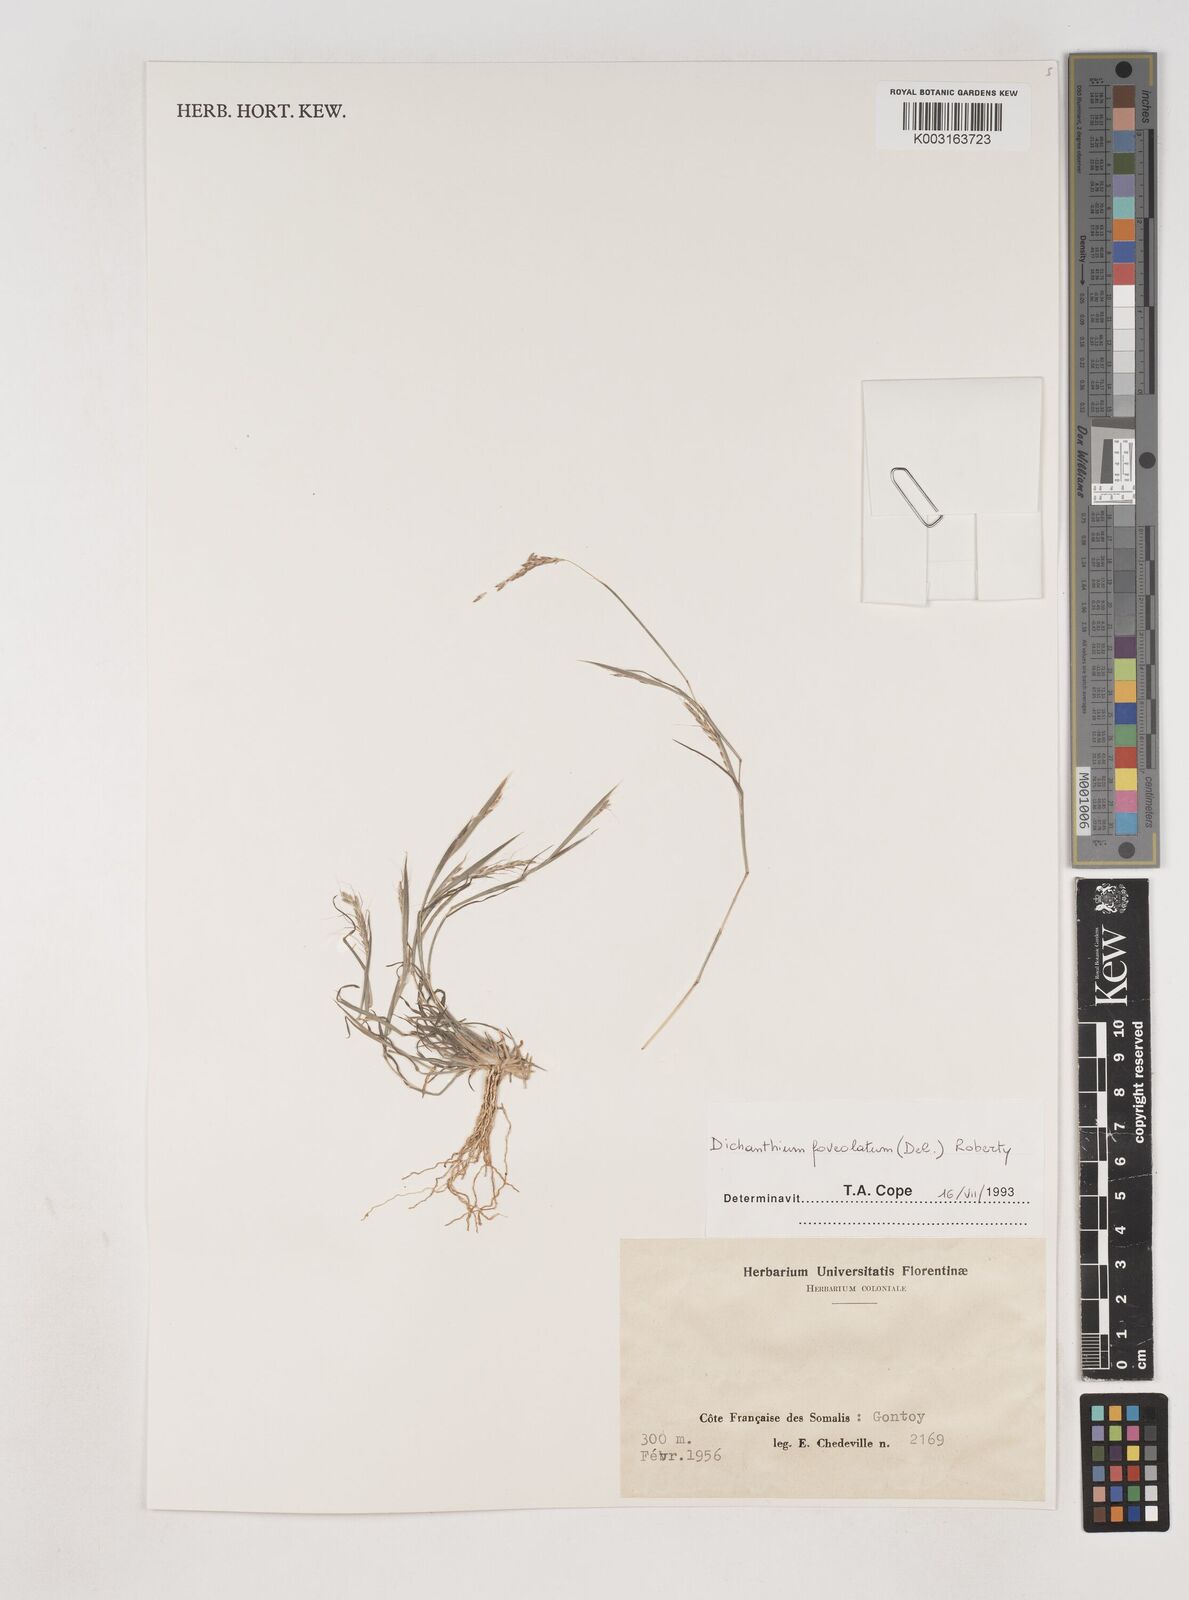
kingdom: Plantae
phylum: Tracheophyta
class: Liliopsida
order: Poales
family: Poaceae
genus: Dichanthium
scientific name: Dichanthium foveolatum
